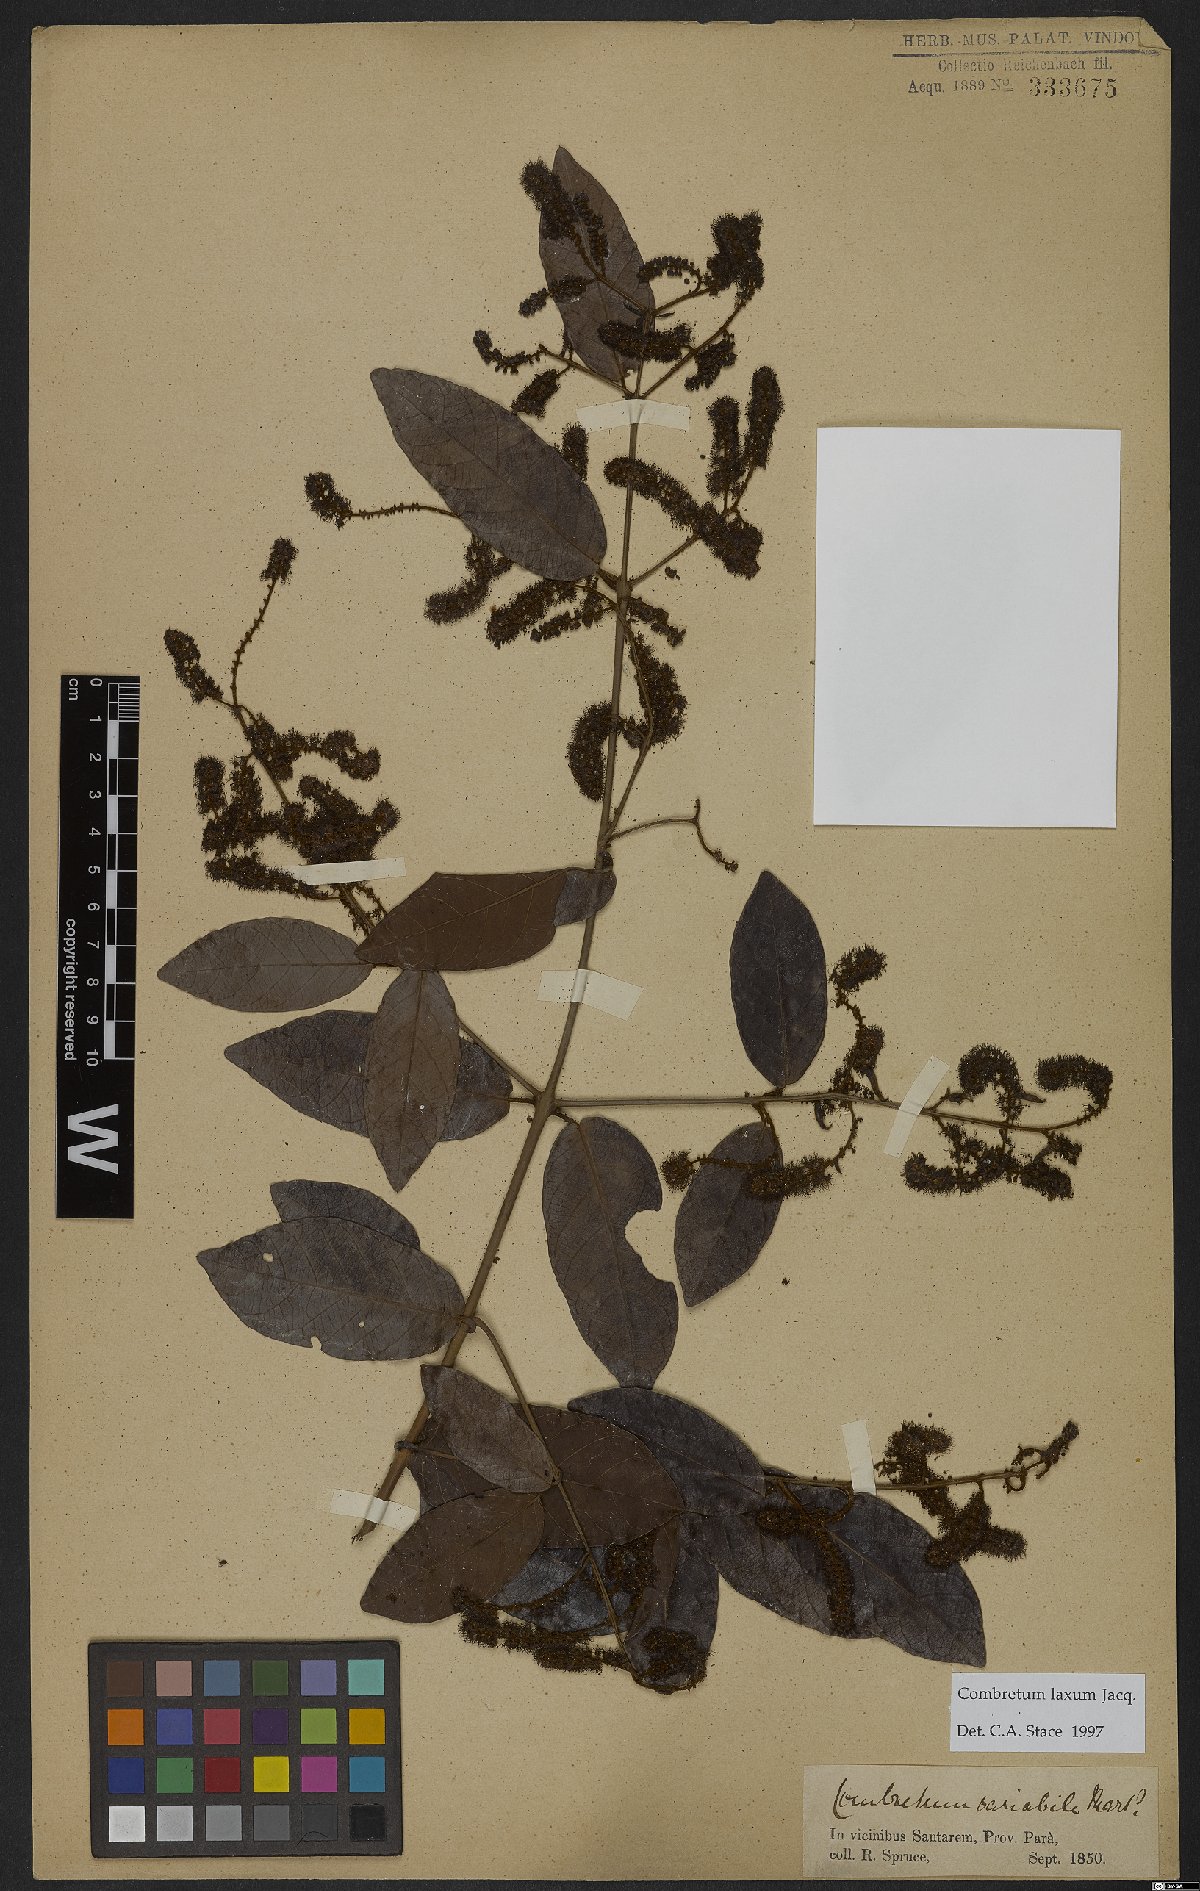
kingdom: Plantae
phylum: Tracheophyta
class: Magnoliopsida
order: Myrtales
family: Combretaceae
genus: Combretum
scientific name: Combretum laxum
